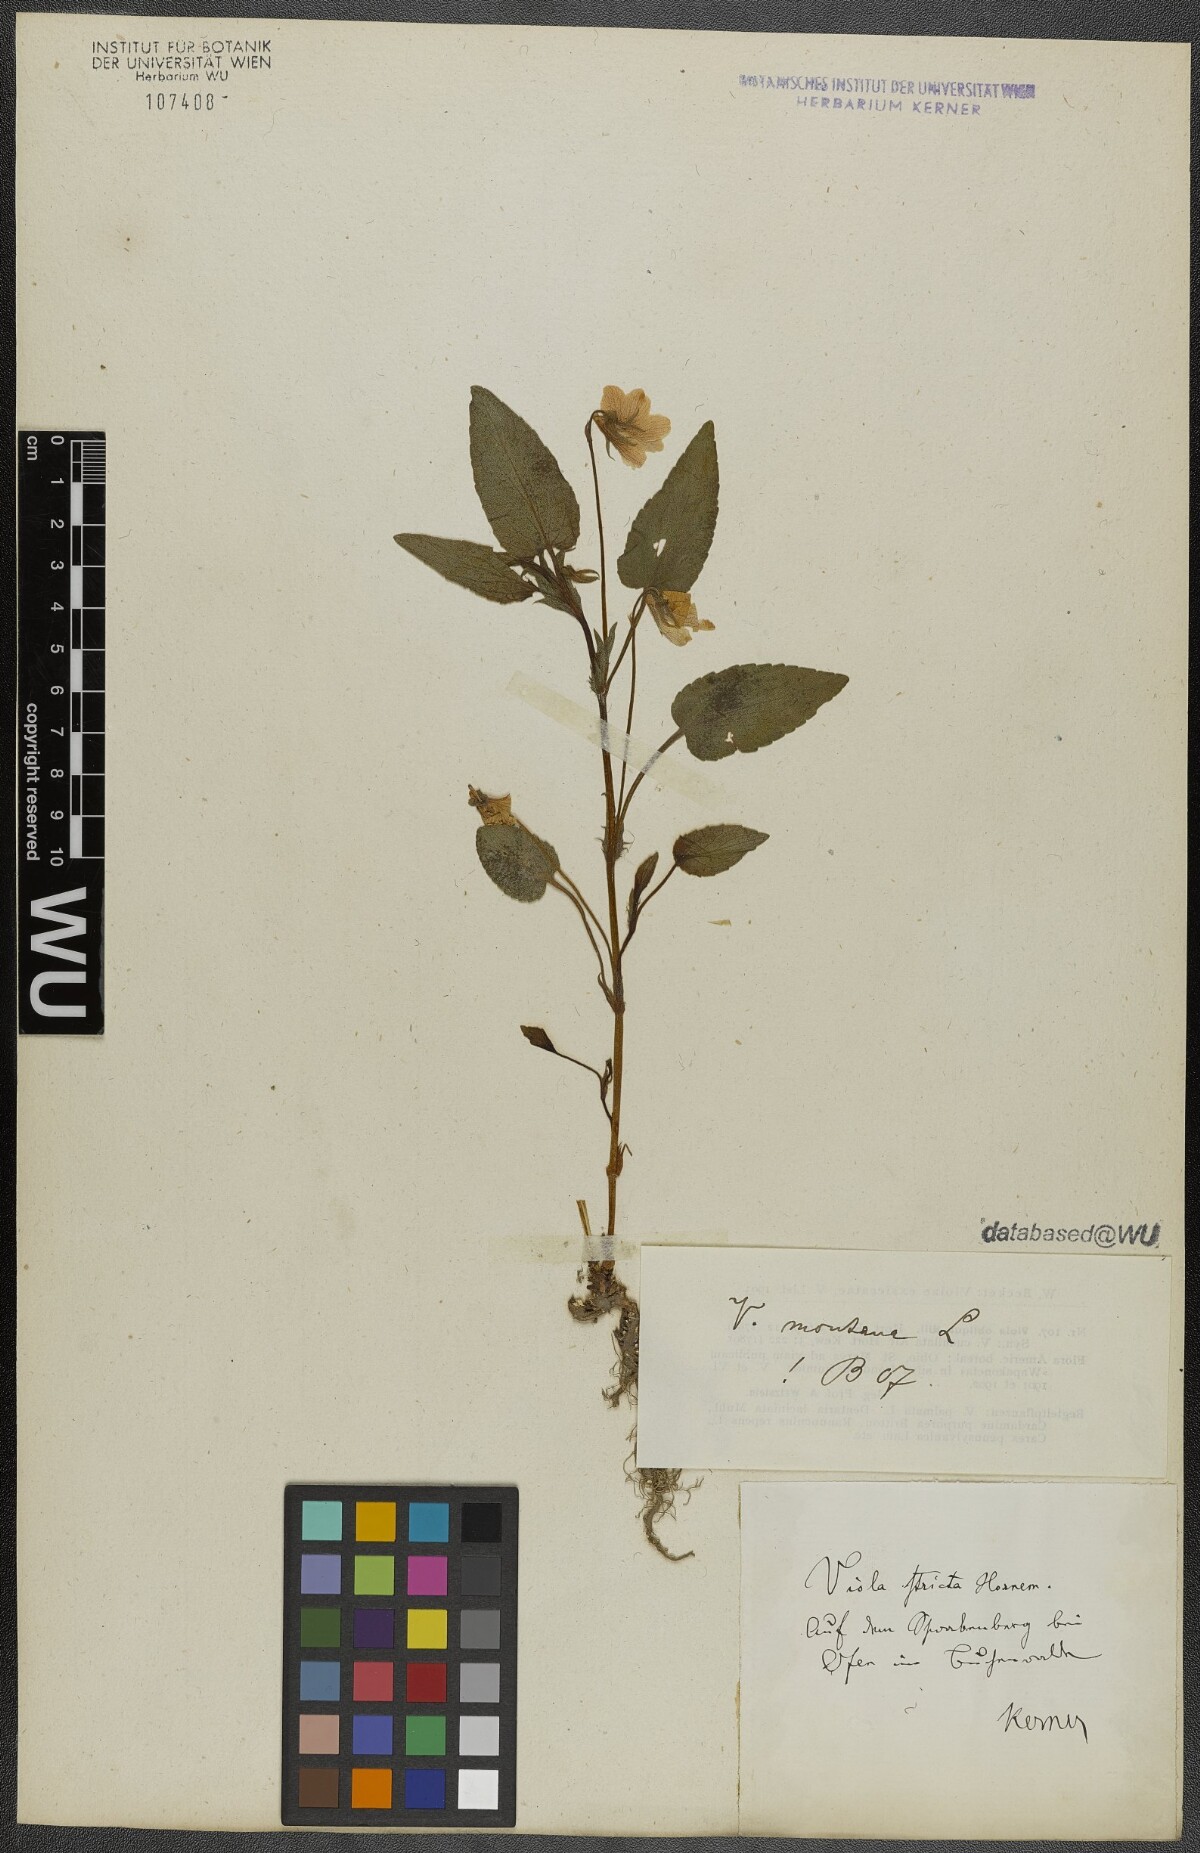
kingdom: Plantae
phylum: Tracheophyta
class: Magnoliopsida
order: Malpighiales
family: Violaceae
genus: Viola
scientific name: Viola ruppii
